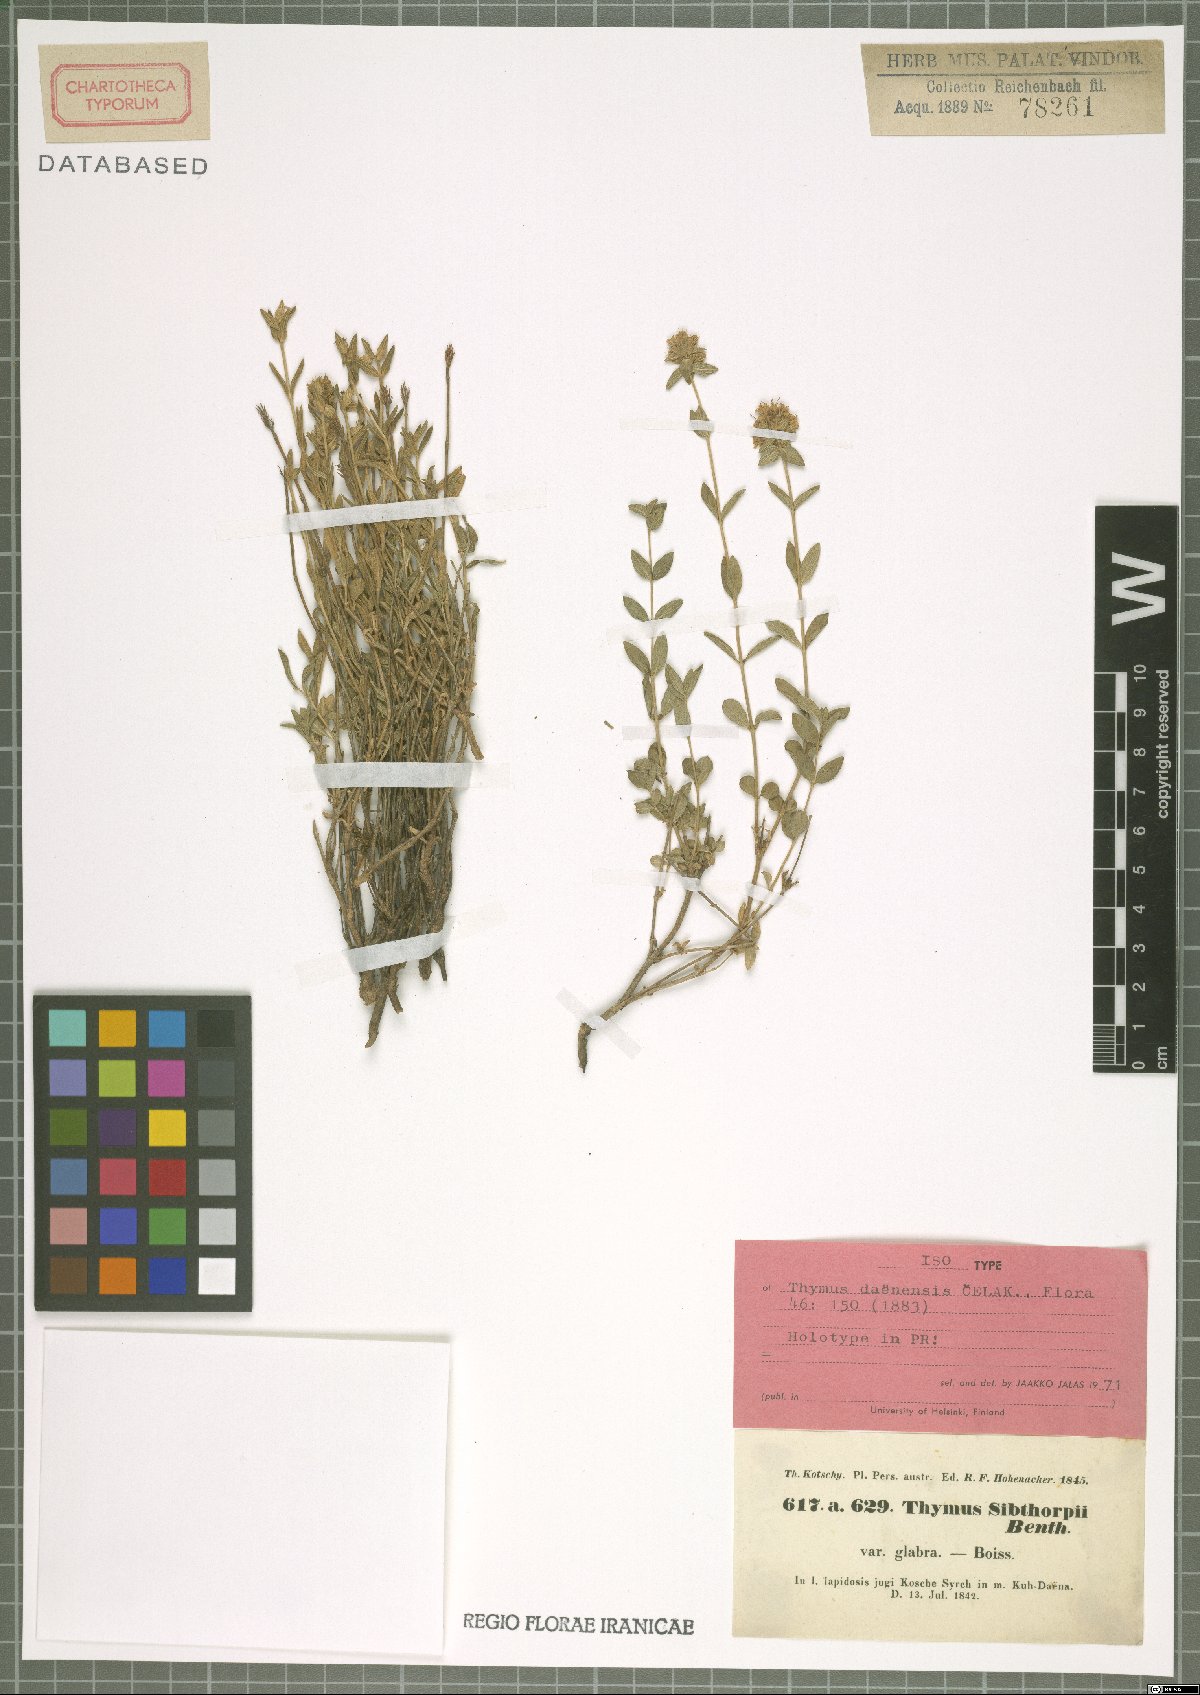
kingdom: Plantae
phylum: Tracheophyta
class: Magnoliopsida
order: Lamiales
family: Lamiaceae
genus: Thymus
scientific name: Thymus daenensis
